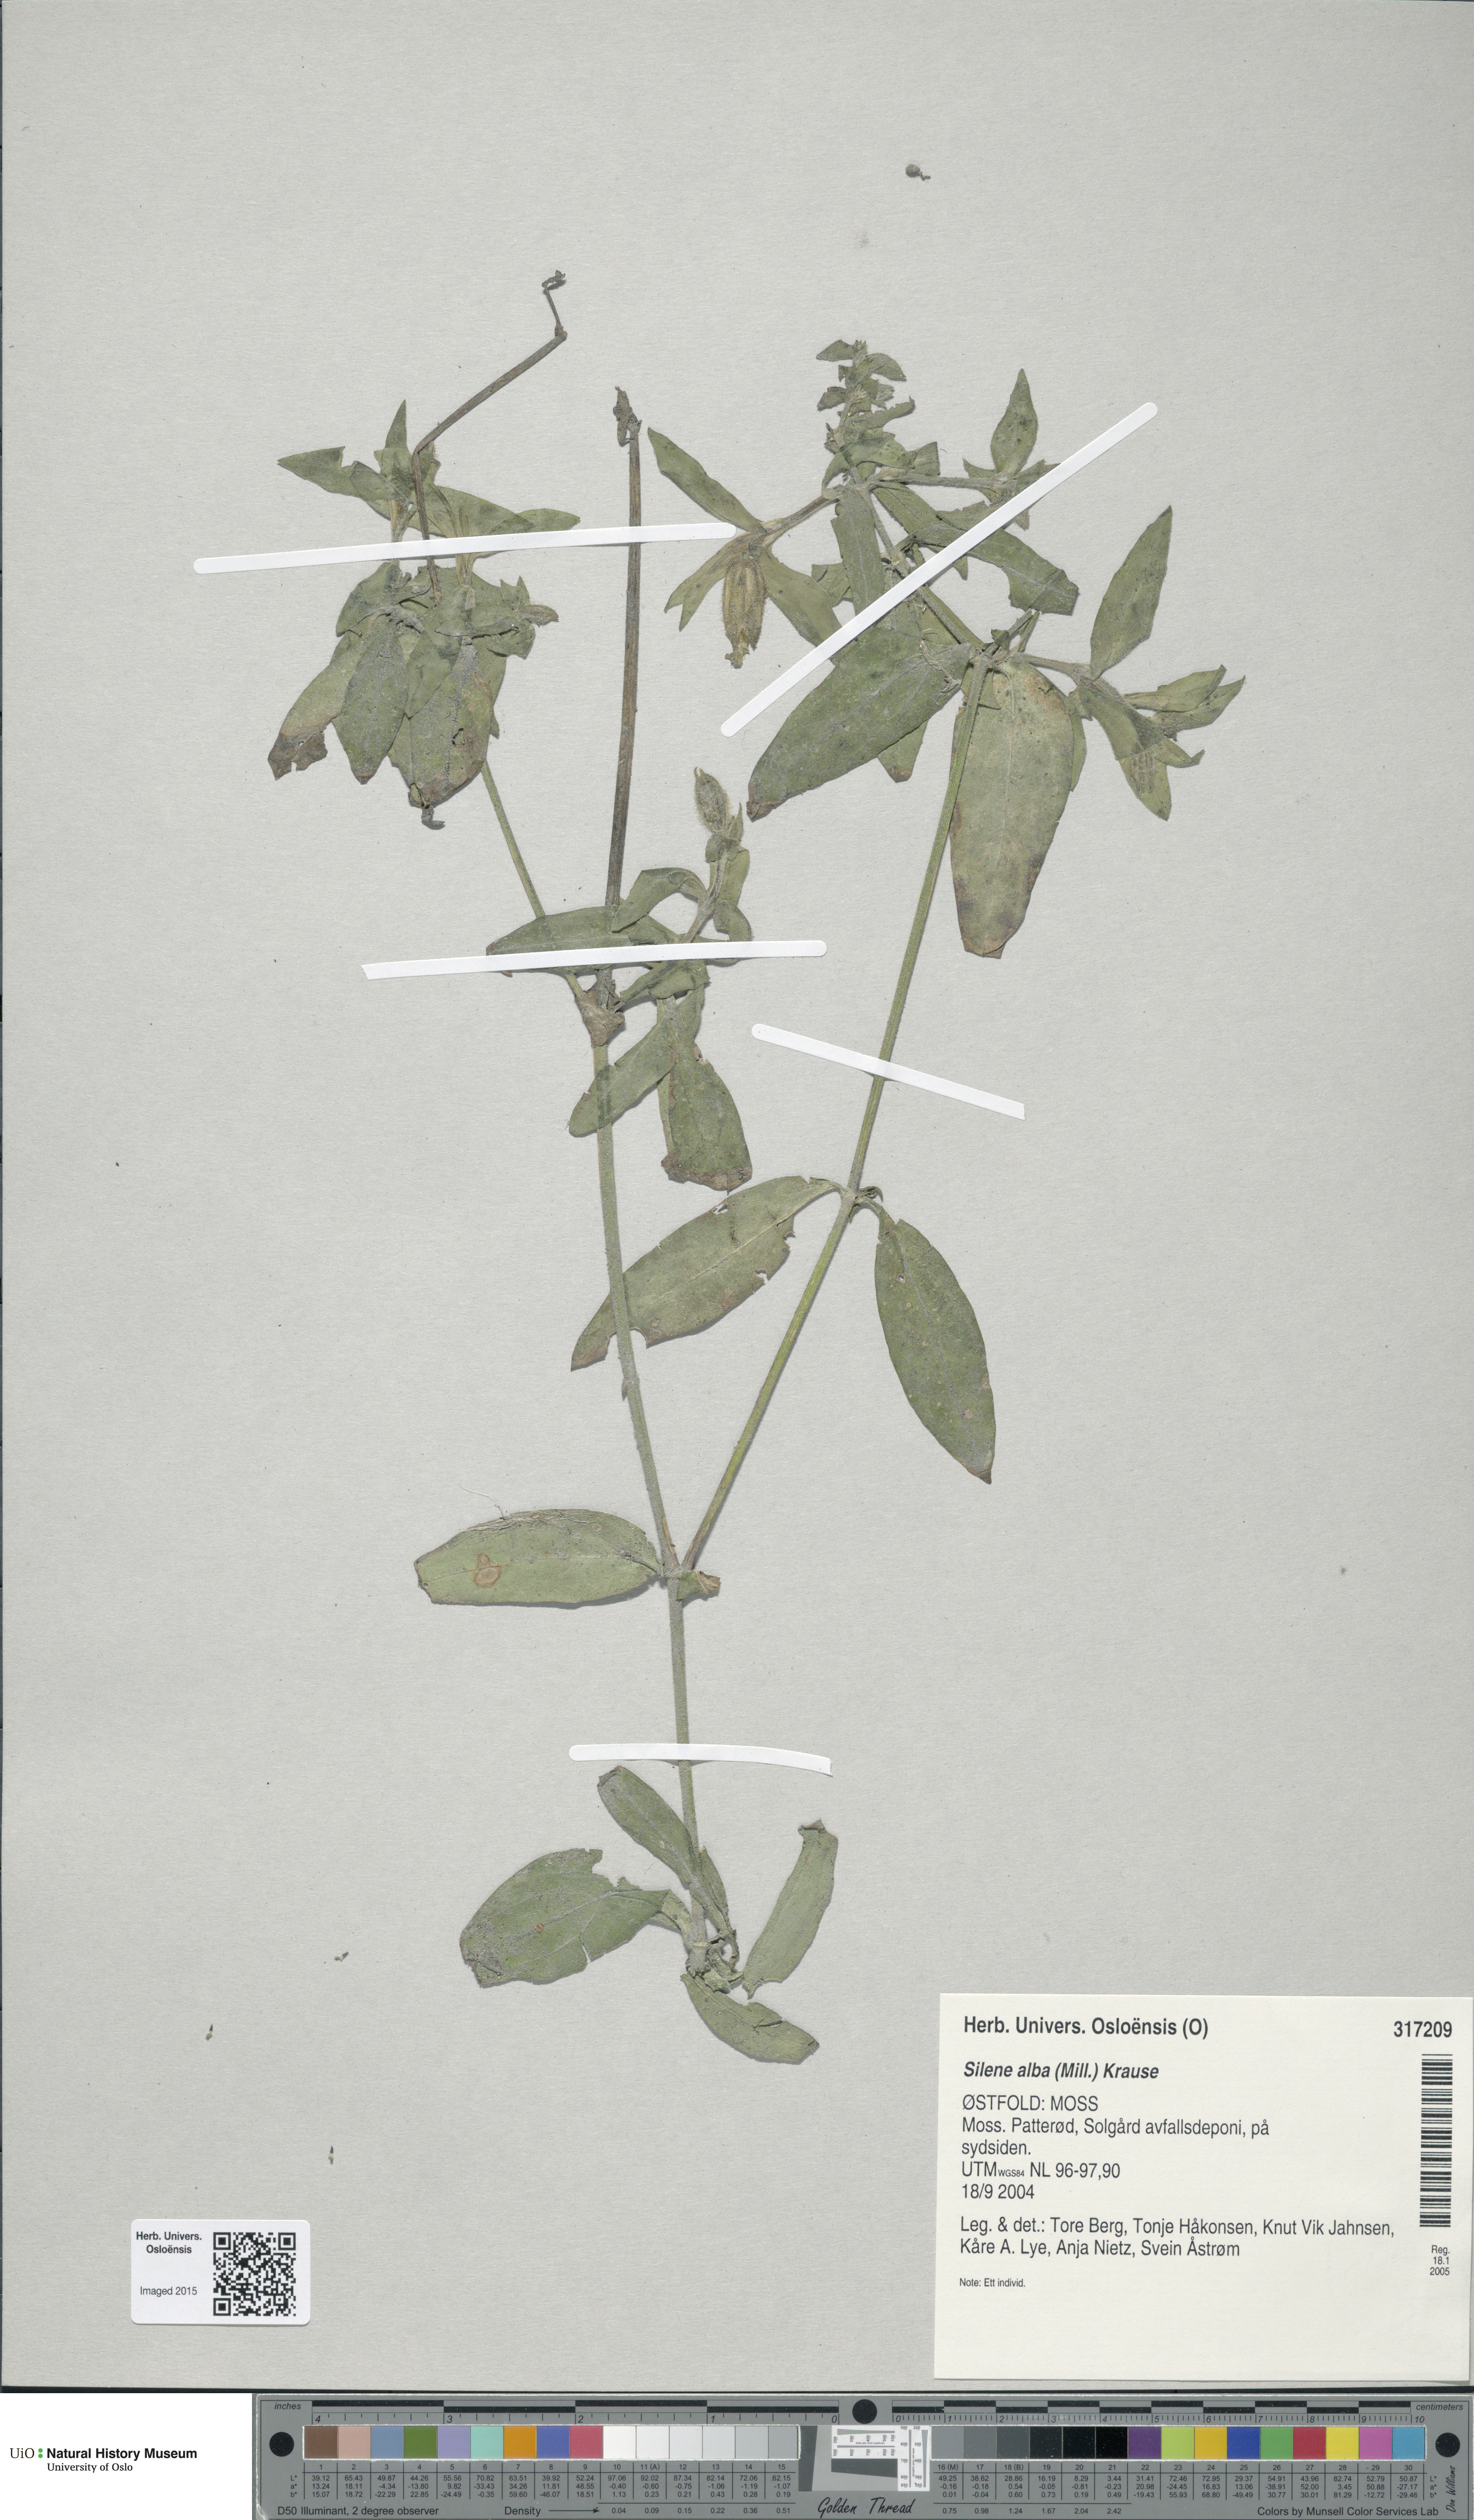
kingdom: Plantae
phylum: Tracheophyta
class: Magnoliopsida
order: Caryophyllales
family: Caryophyllaceae
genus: Silene
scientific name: Silene latifolia
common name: White campion
